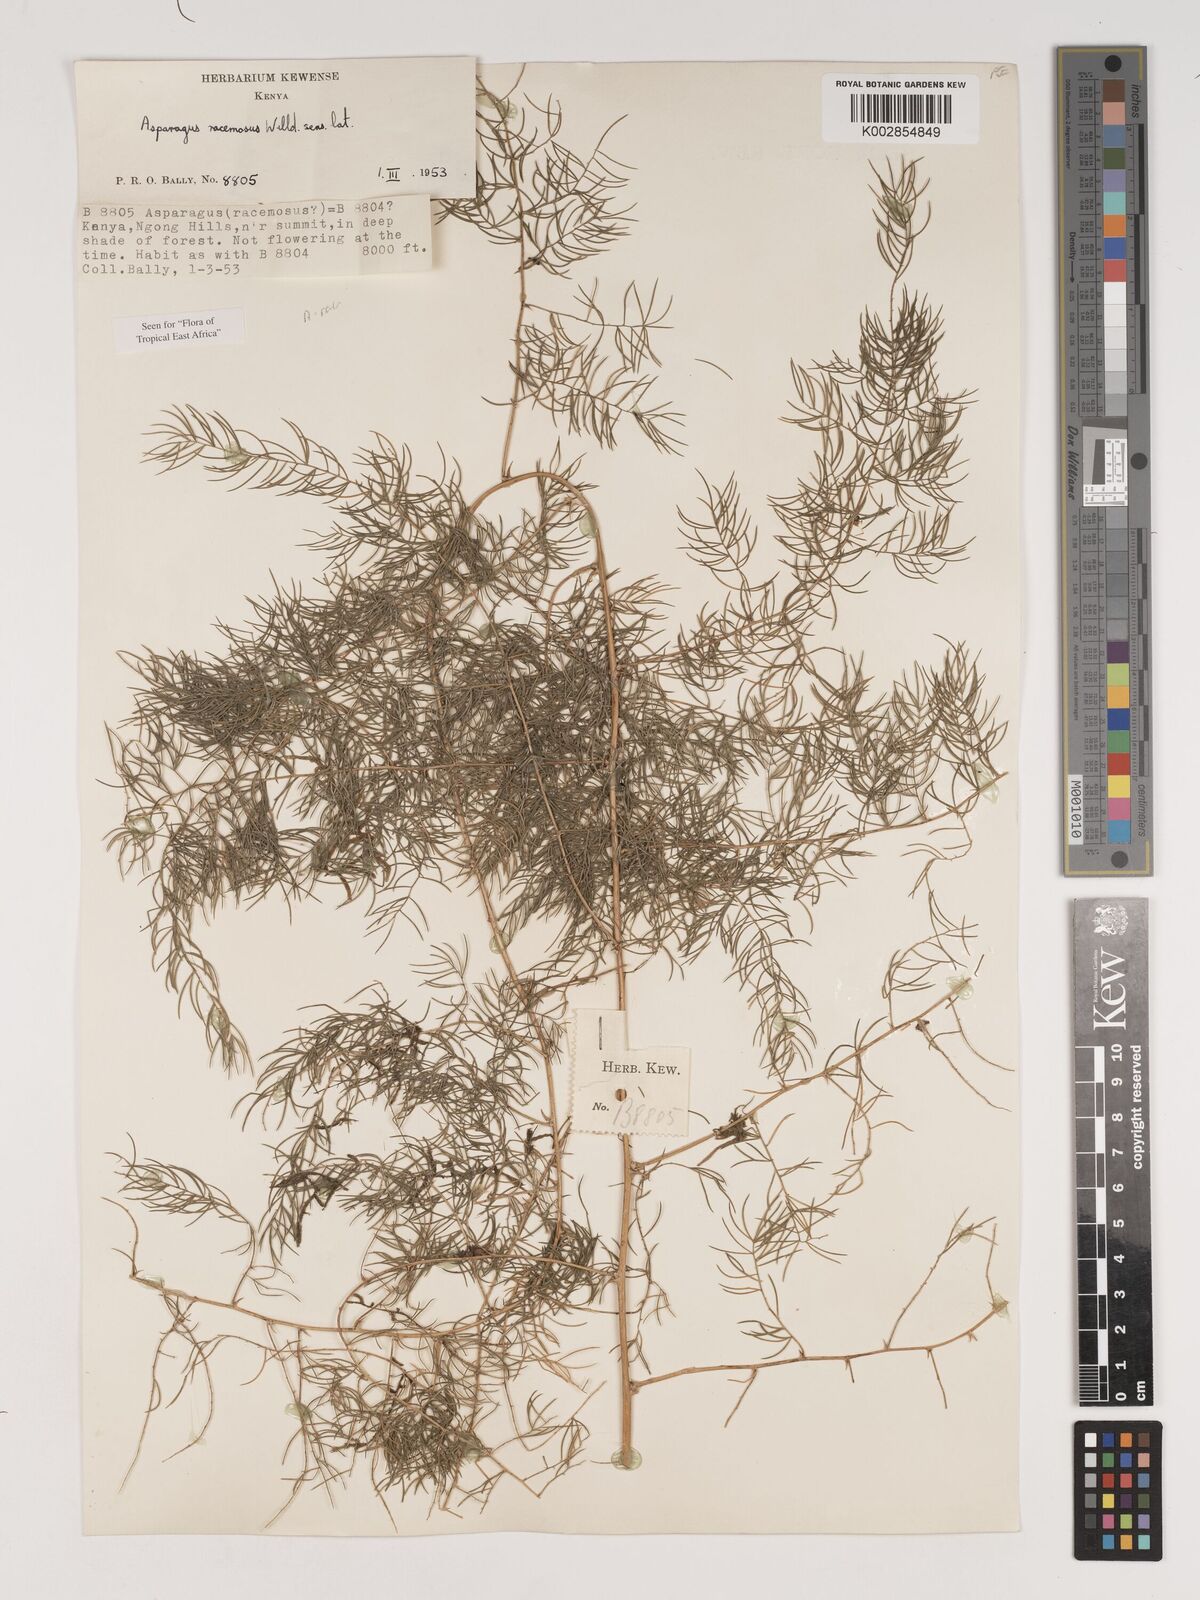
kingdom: Plantae
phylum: Tracheophyta
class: Liliopsida
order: Asparagales
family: Asparagaceae
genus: Asparagus
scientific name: Asparagus racemosus
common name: Asparagus-fern
